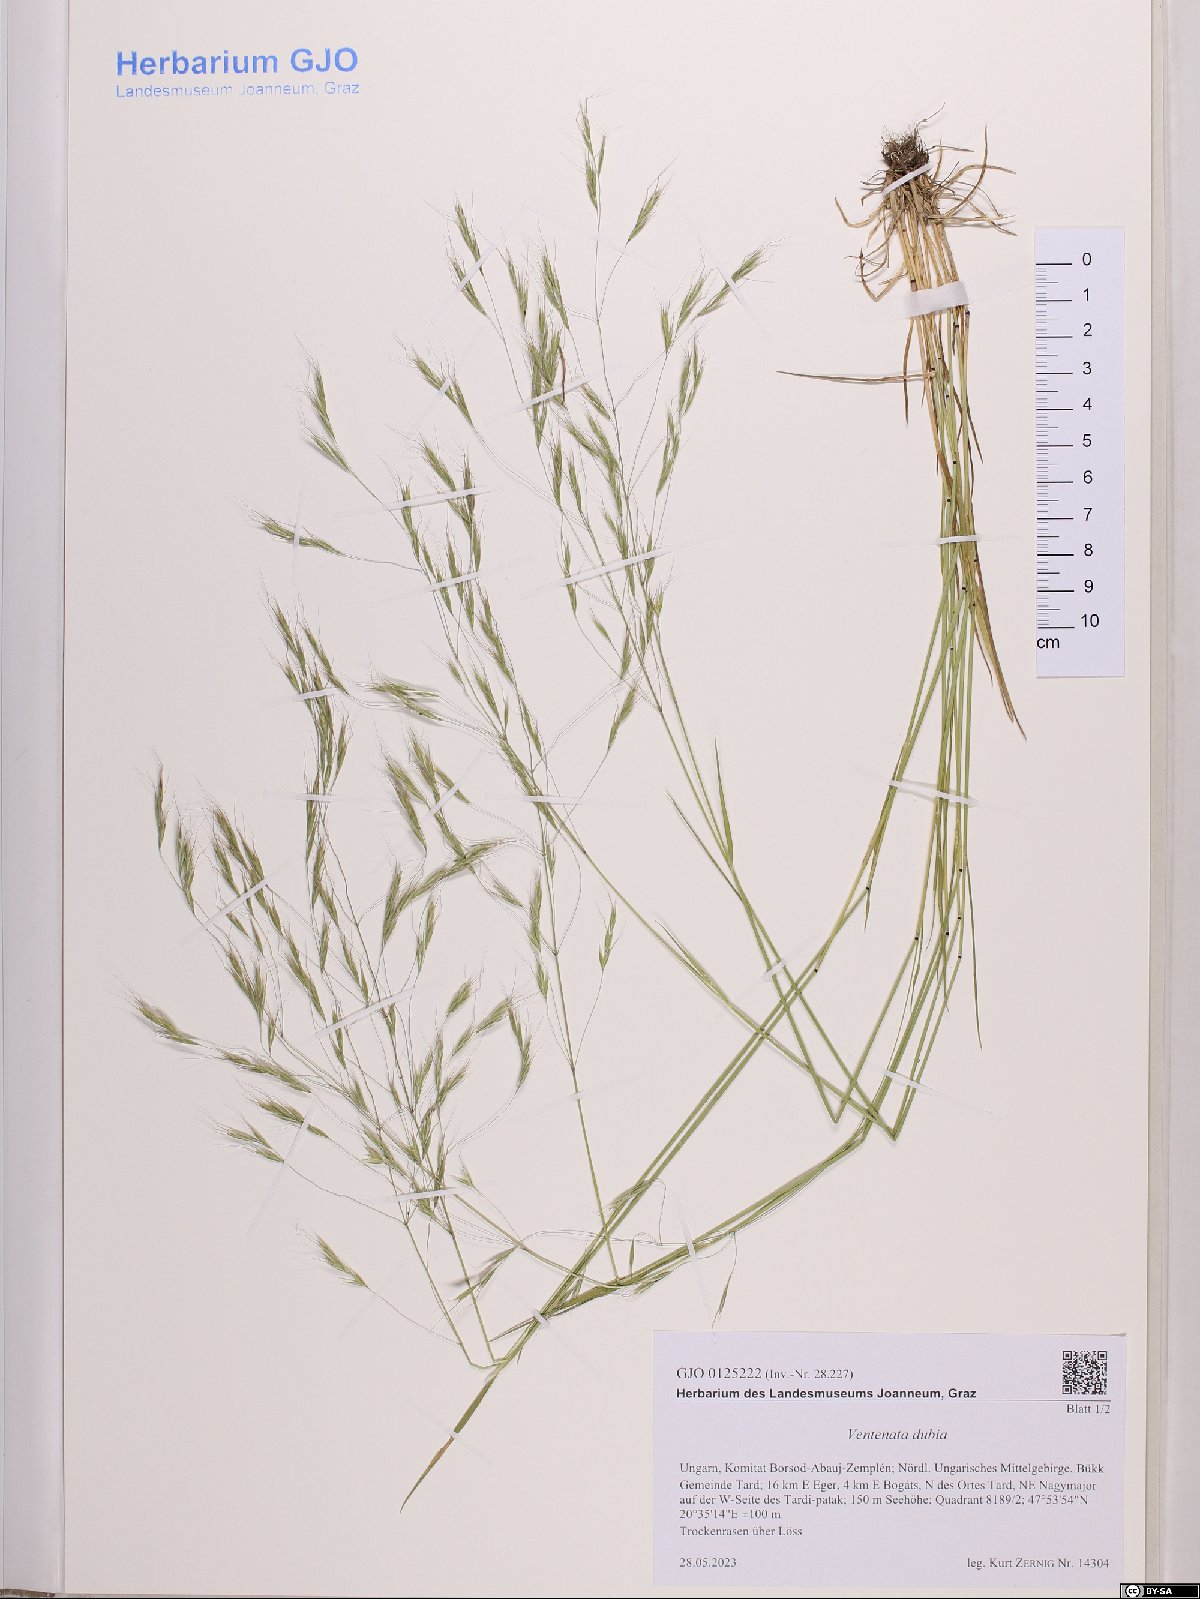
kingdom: Plantae
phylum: Tracheophyta
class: Liliopsida
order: Poales
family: Poaceae
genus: Ventenata
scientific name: Ventenata dubia
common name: North africa grass
